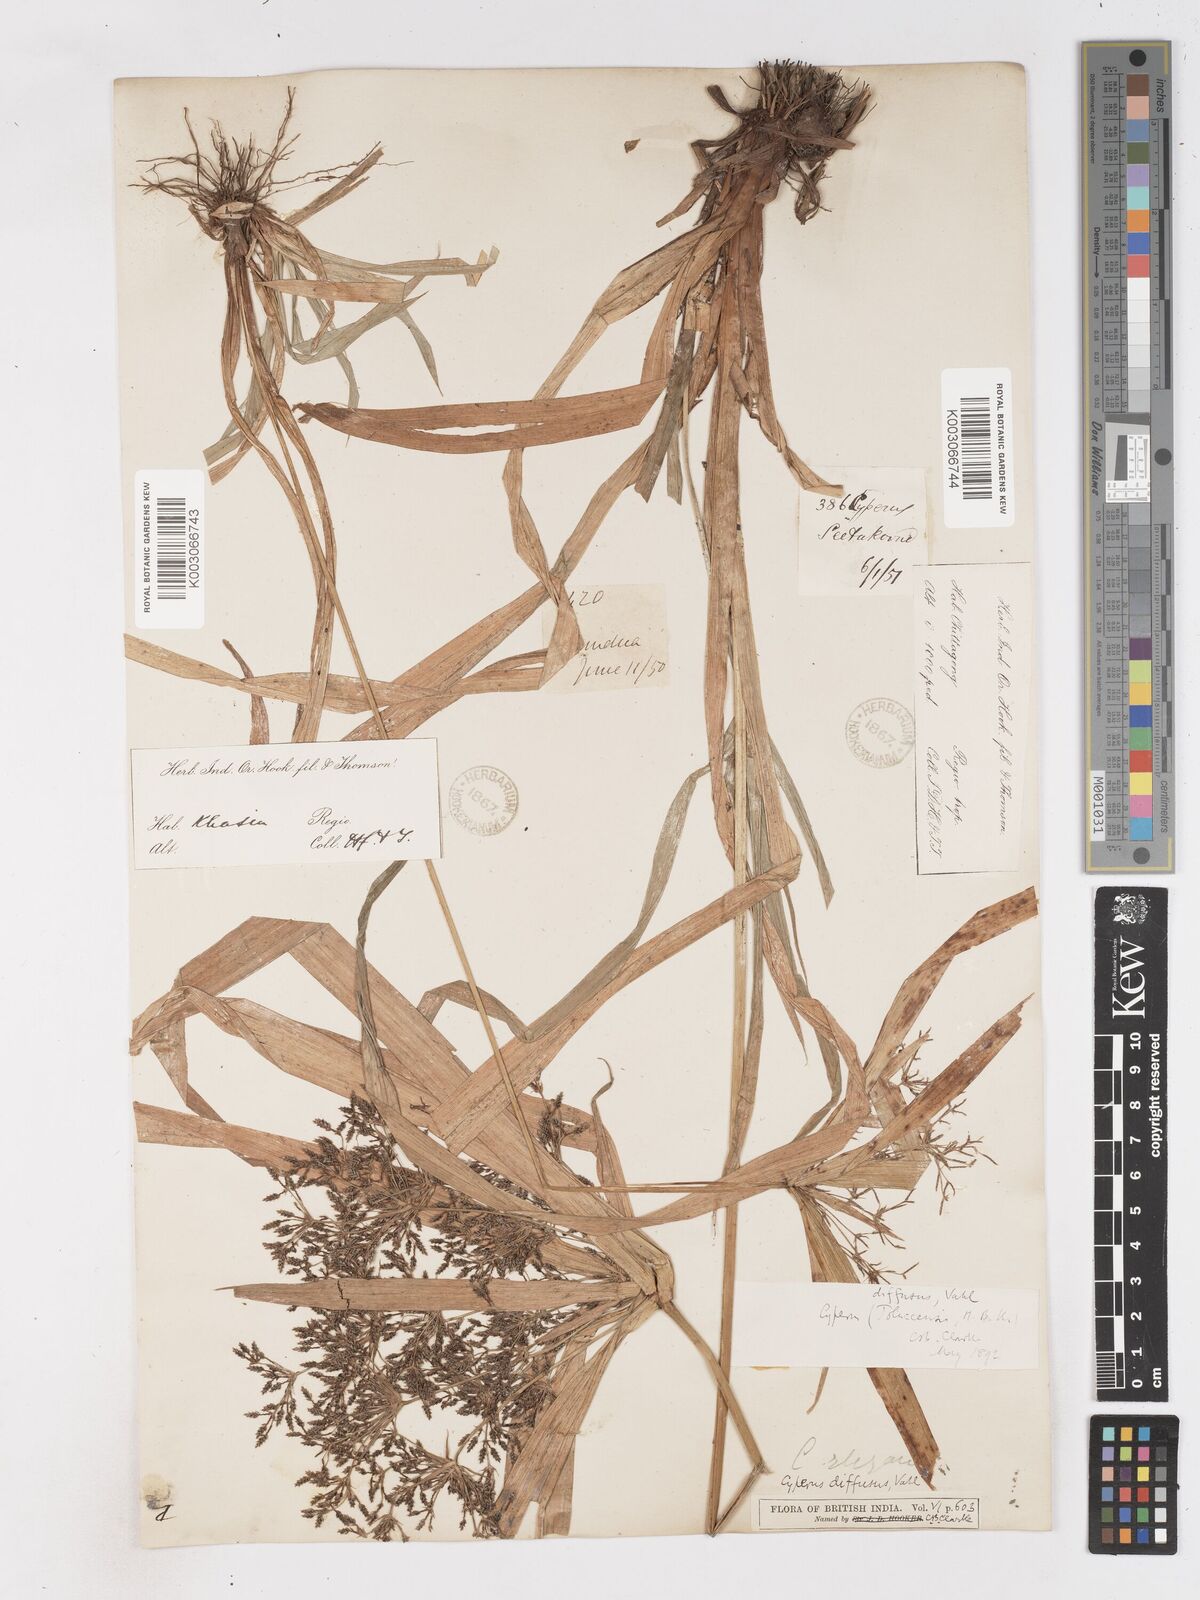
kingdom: Plantae
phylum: Tracheophyta
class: Liliopsida
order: Poales
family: Cyperaceae
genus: Cyperus
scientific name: Cyperus diffusus
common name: Dwarf umbrella grass
